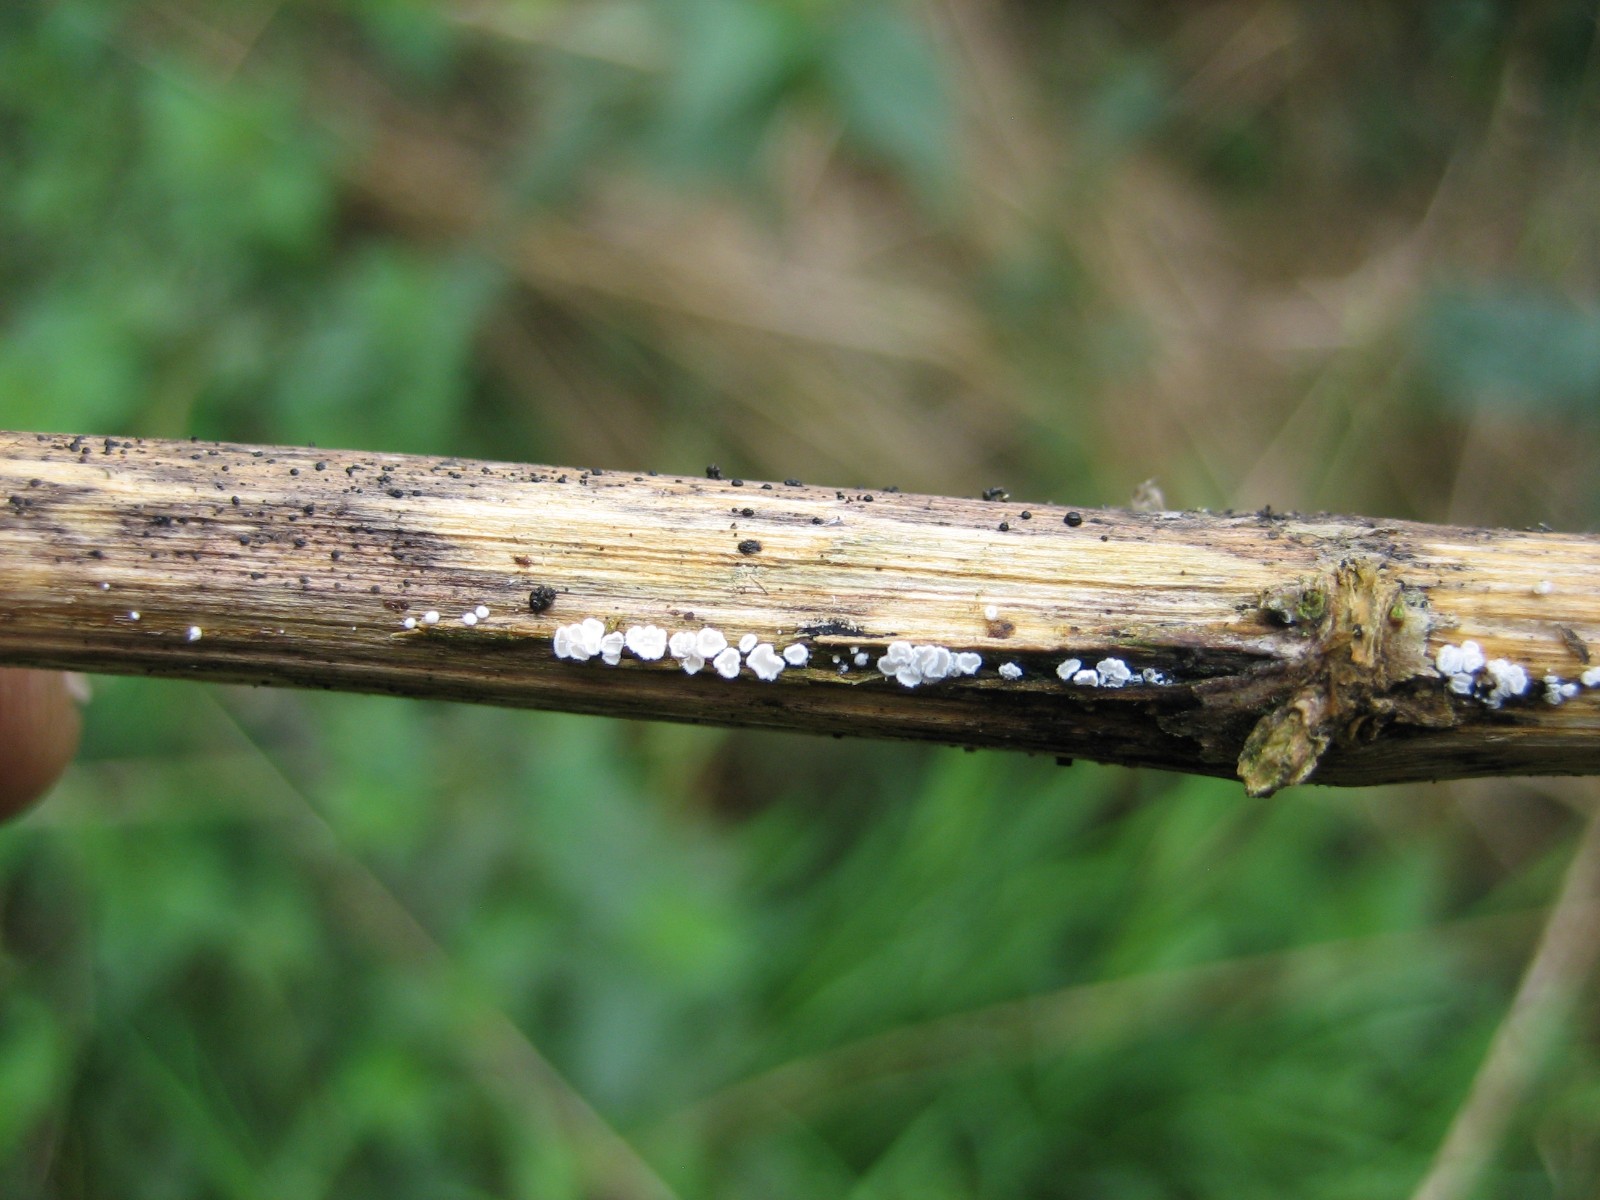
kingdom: Fungi
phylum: Basidiomycota
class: Agaricomycetes
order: Agaricales
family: Niaceae
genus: Lachnella
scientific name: Lachnella villosa
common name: hvid frynserede
